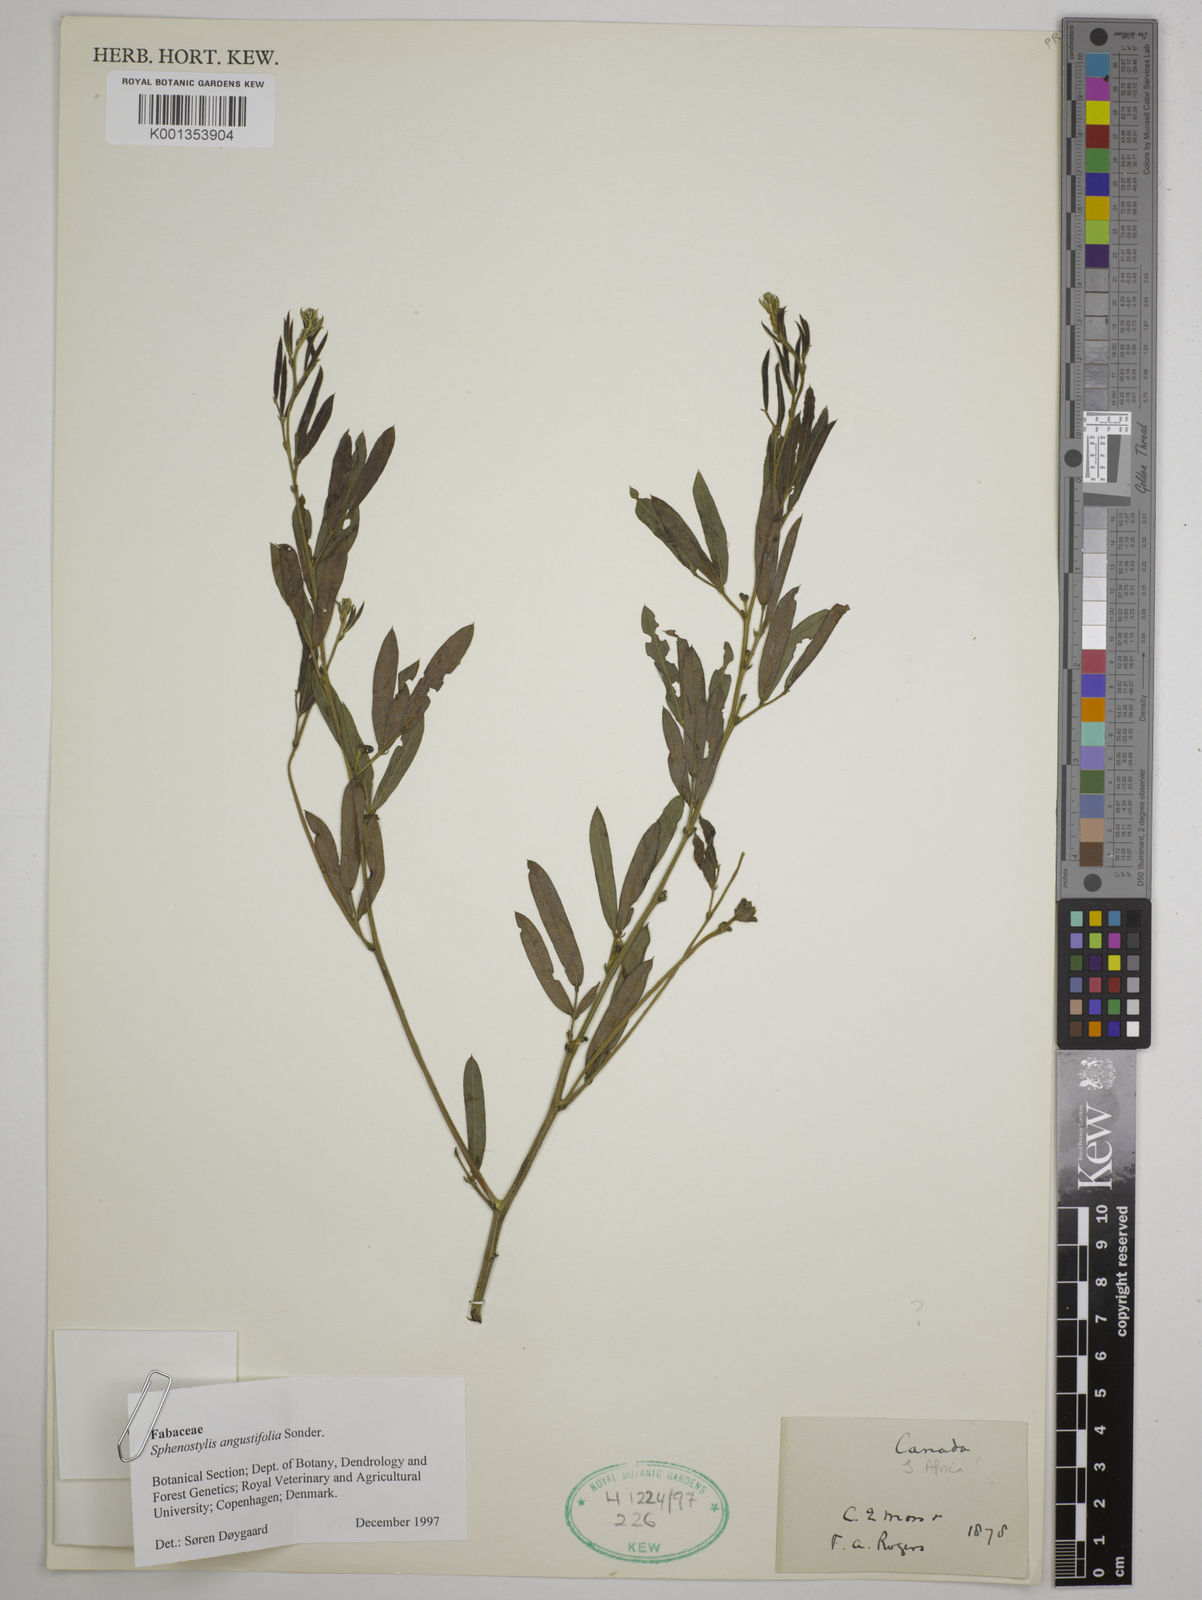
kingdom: Plantae
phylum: Tracheophyta
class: Magnoliopsida
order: Fabales
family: Fabaceae
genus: Sphenostylis
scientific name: Sphenostylis angustifolia
